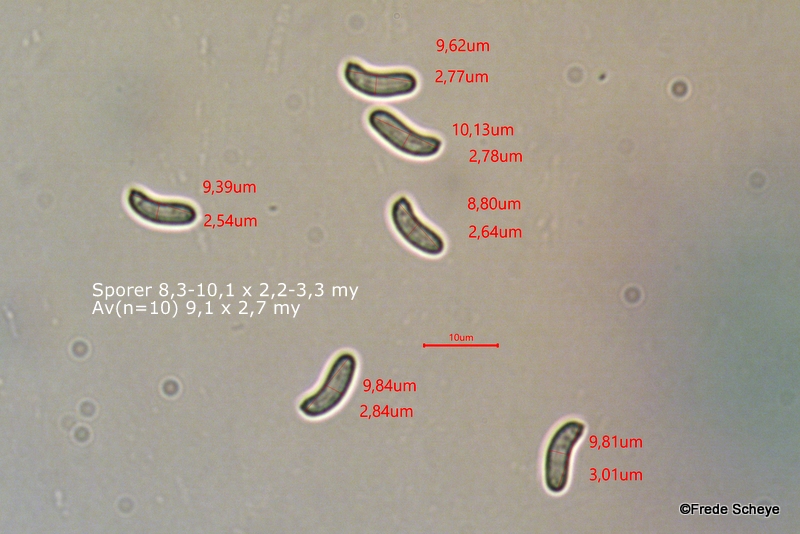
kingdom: Fungi
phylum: Basidiomycota
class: Agaricomycetes
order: Russulales
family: Peniophoraceae
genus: Peniophora
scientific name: Peniophora quercina
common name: ege-voksskind
